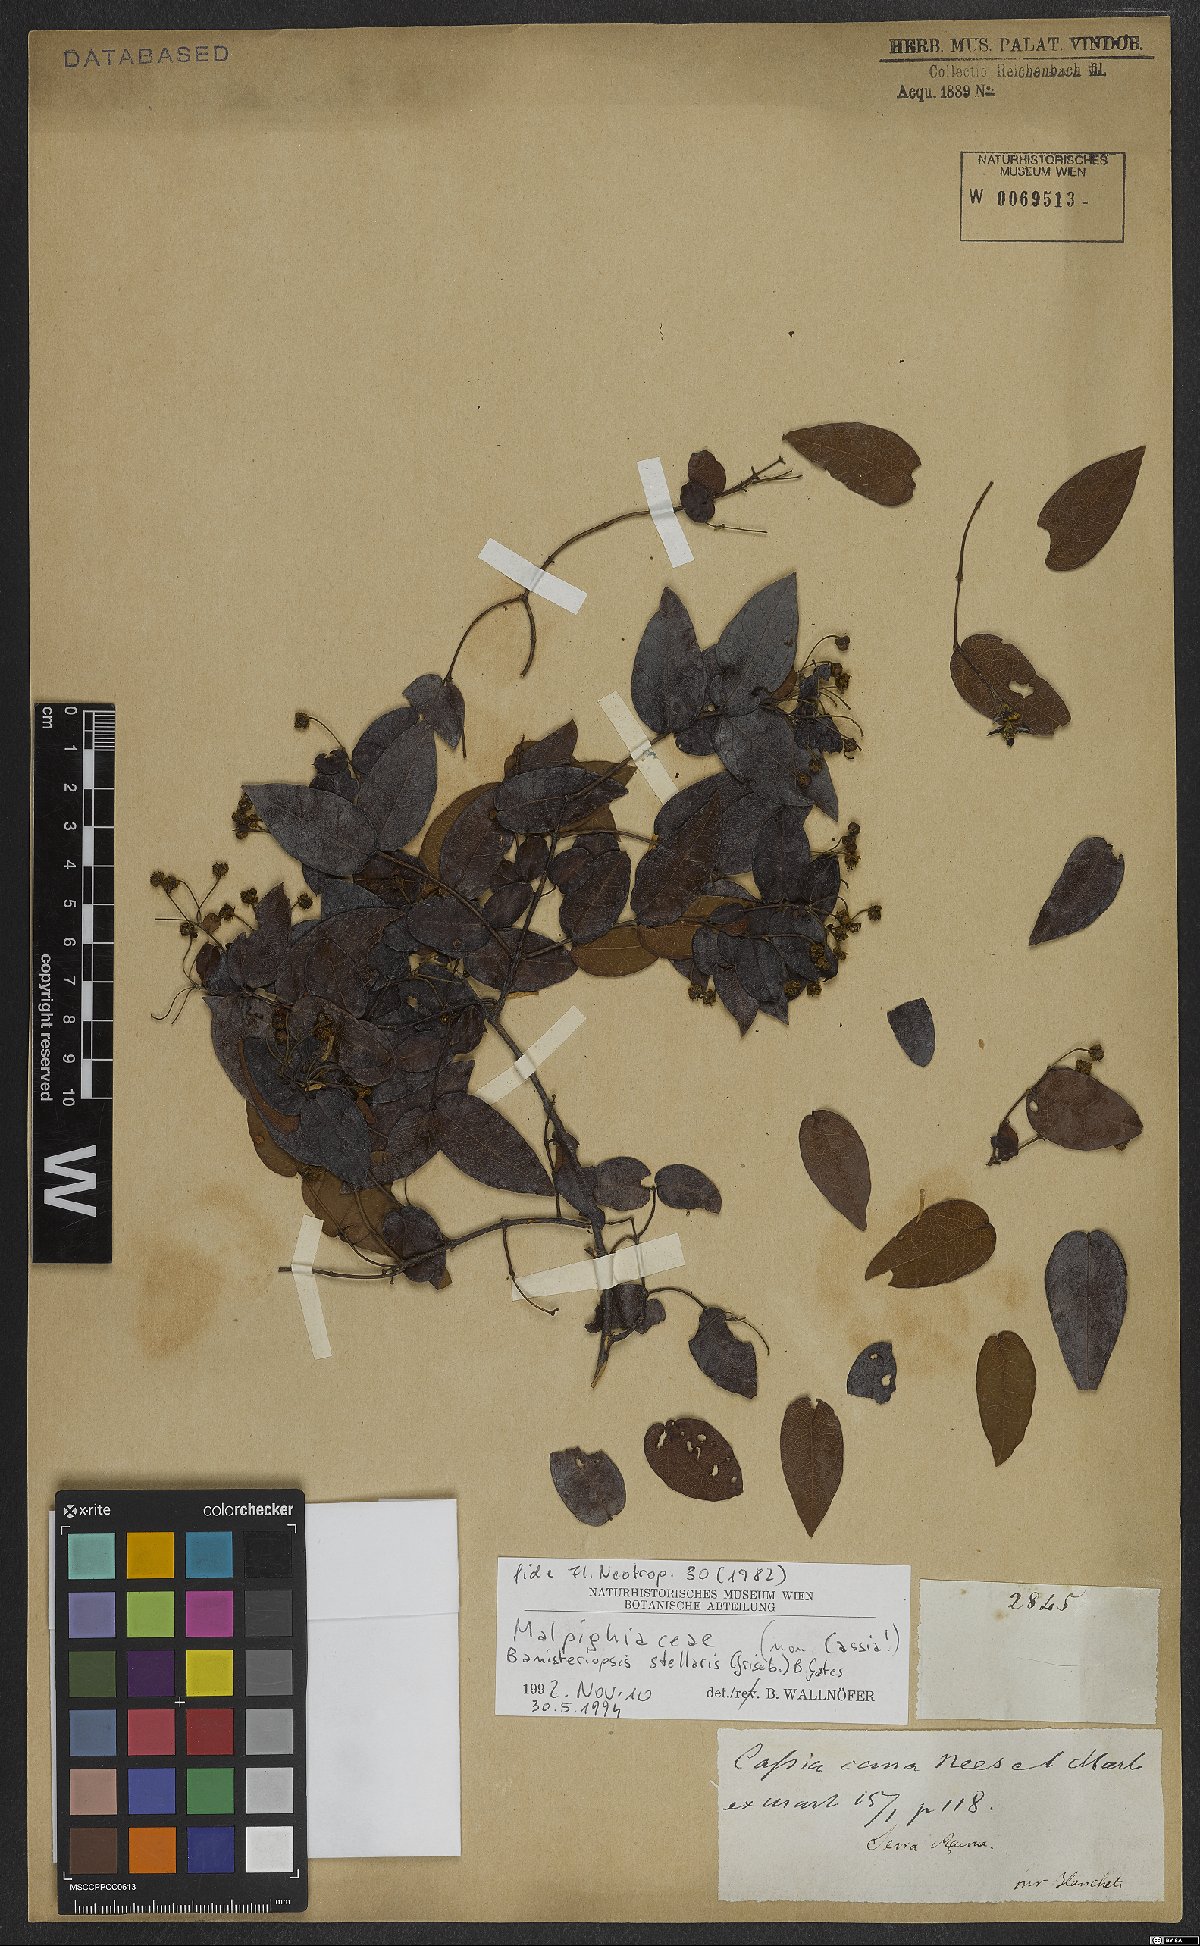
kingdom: Plantae
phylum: Tracheophyta
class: Magnoliopsida
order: Malpighiales
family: Malpighiaceae
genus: Banisteriopsis
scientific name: Banisteriopsis stellaris
